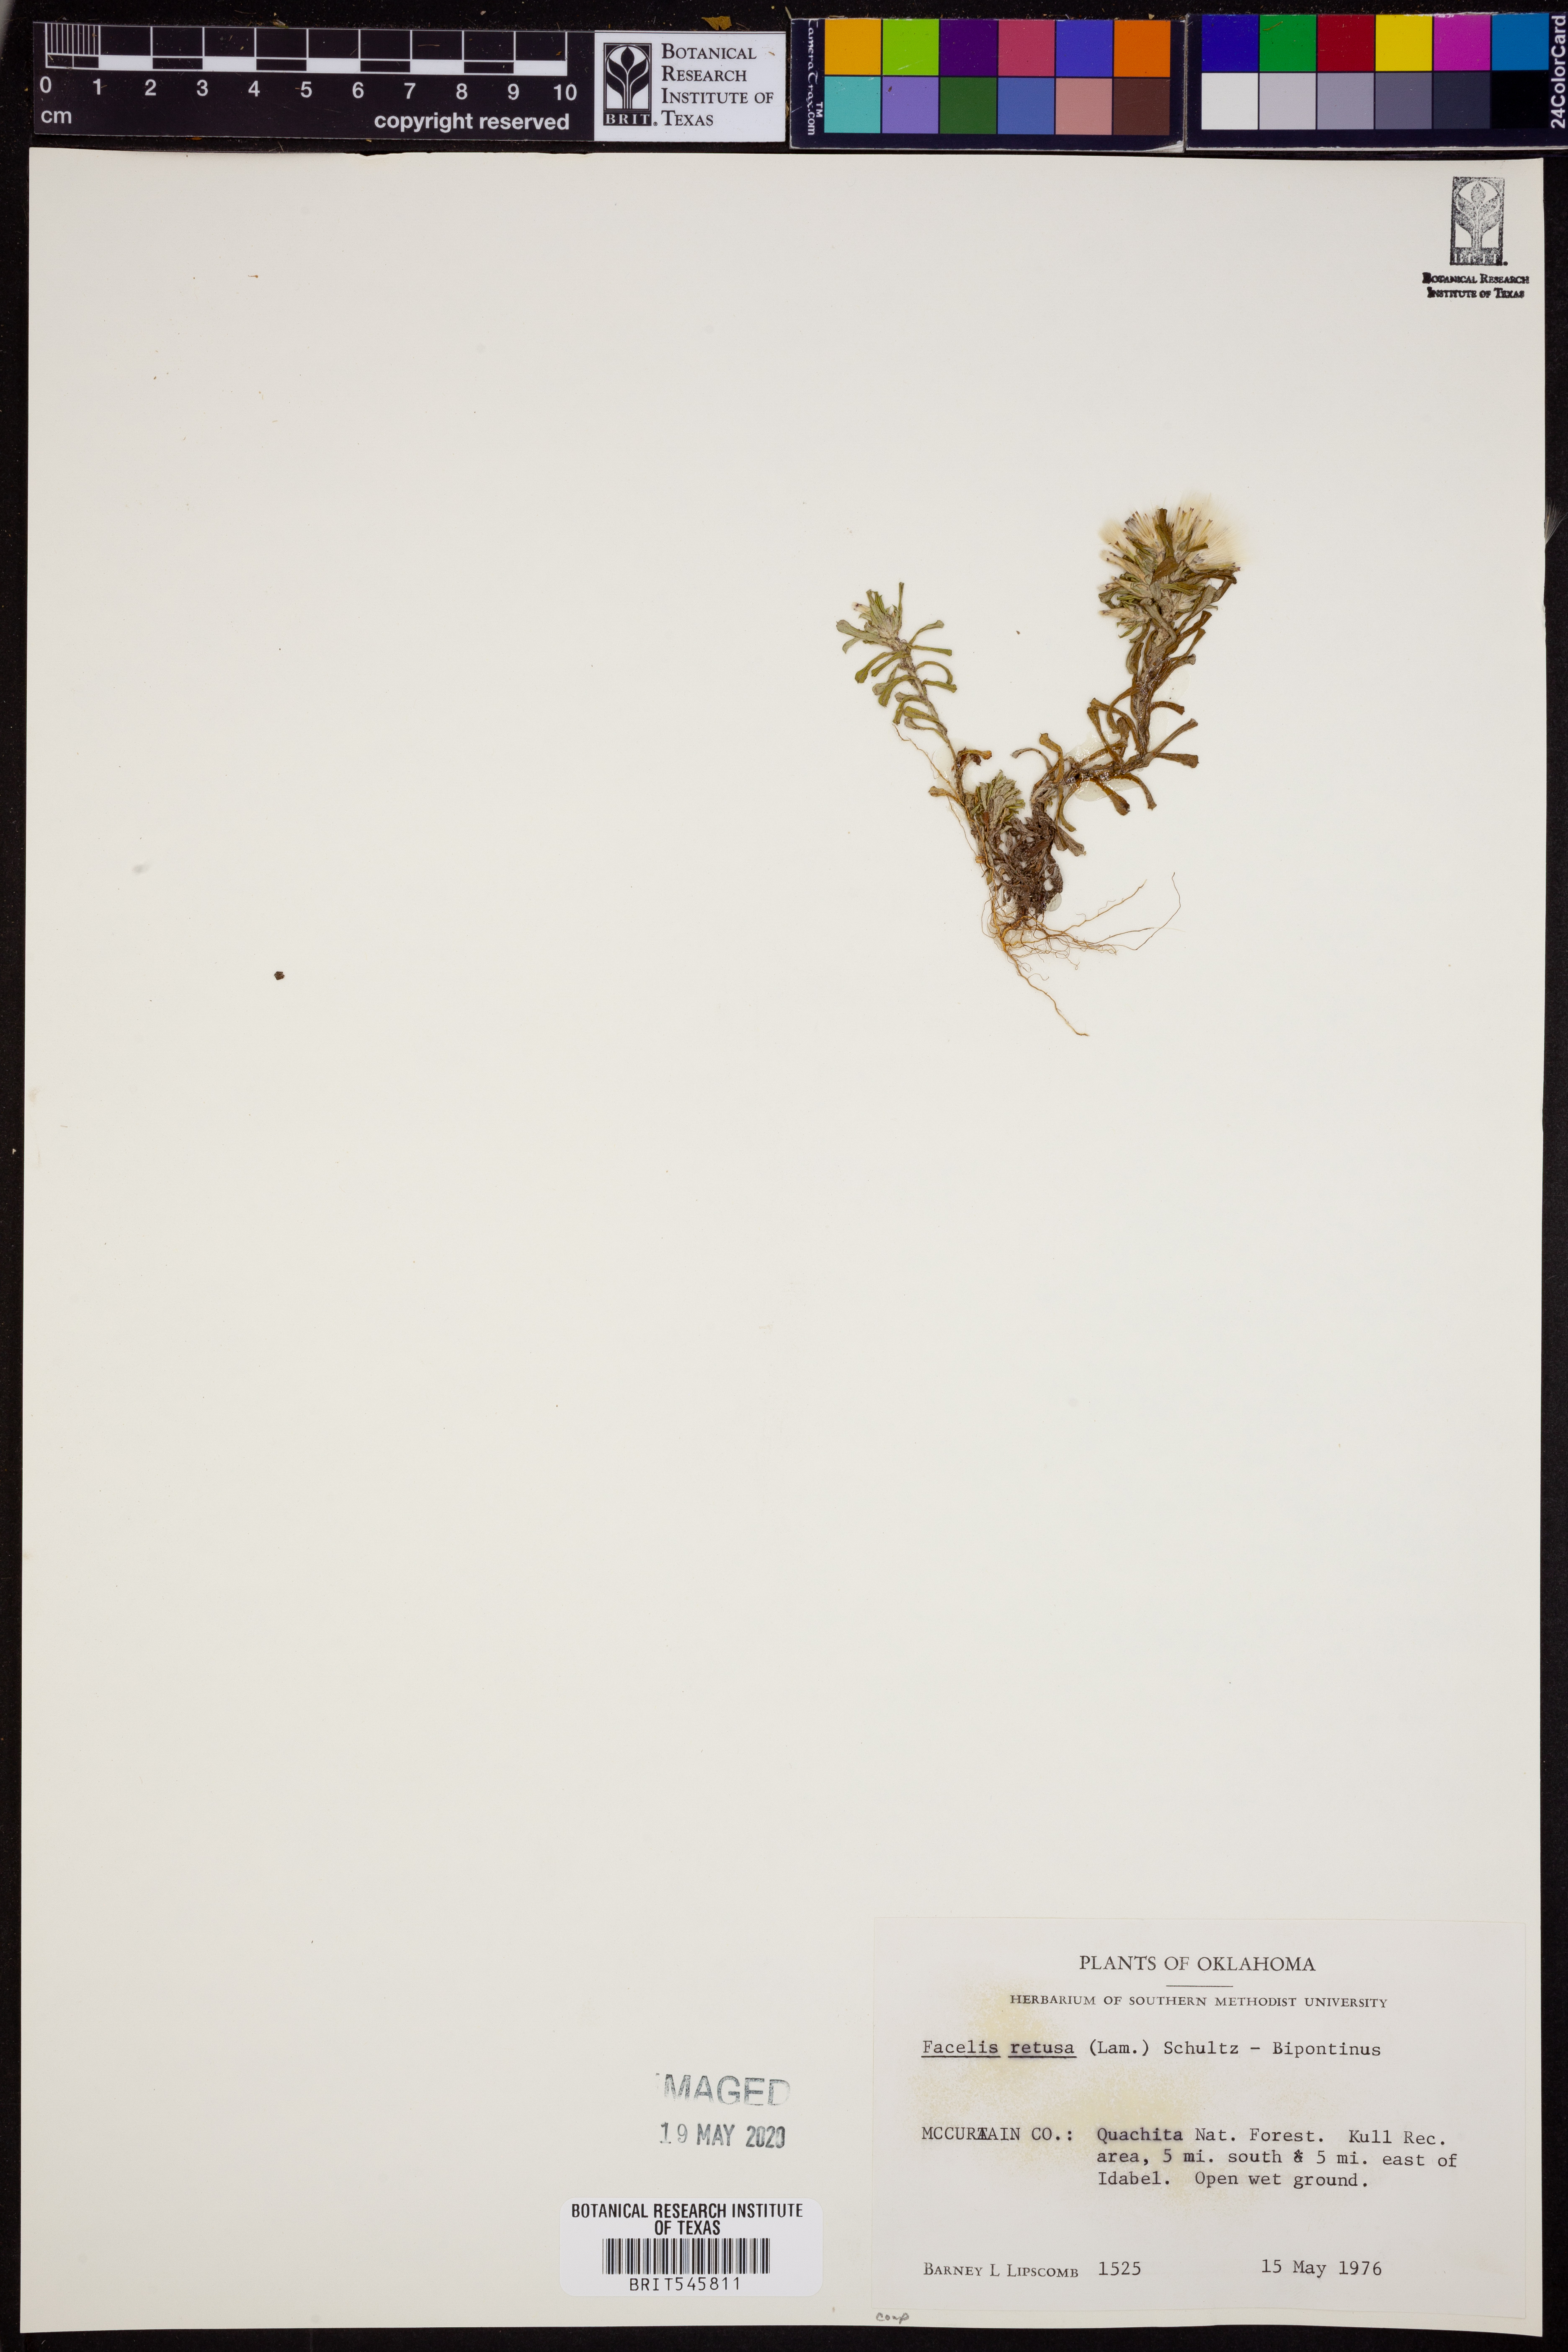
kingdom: Plantae
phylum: Tracheophyta
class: Magnoliopsida
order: Asterales
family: Asteraceae
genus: Facelis
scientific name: Facelis retusa
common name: Annual trampweed
